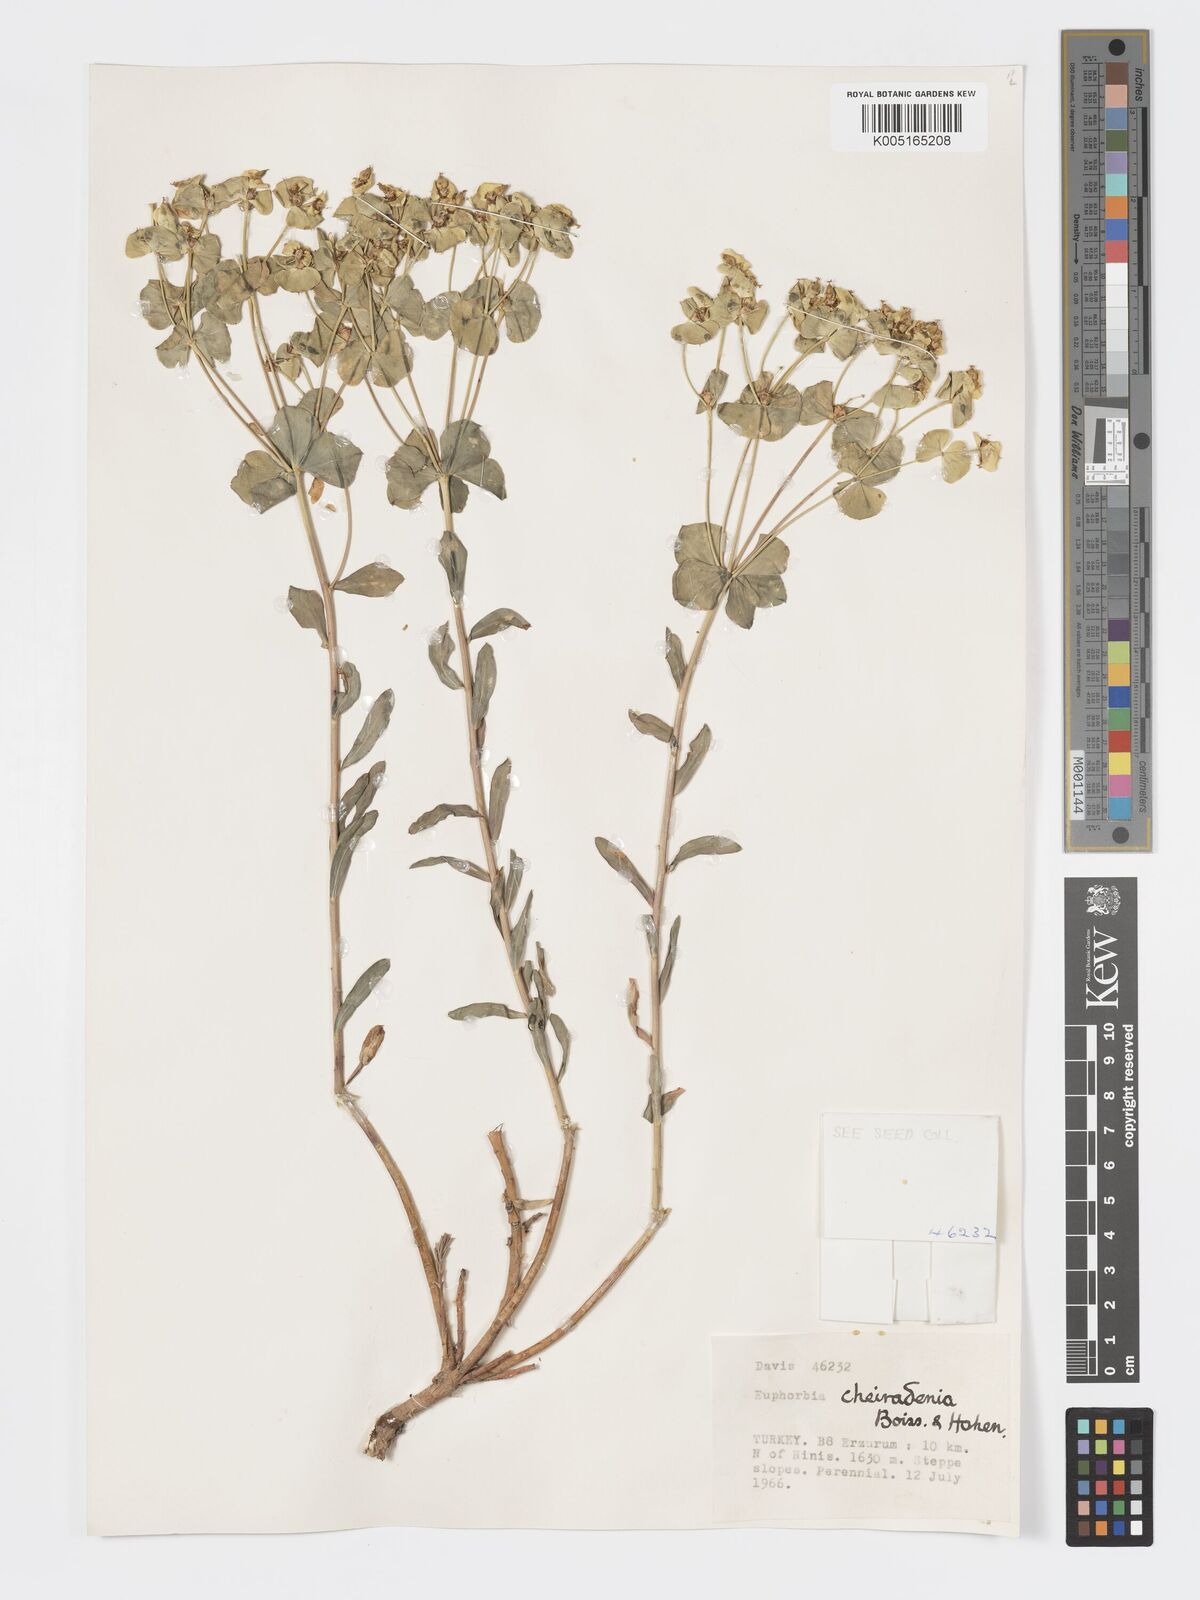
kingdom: Plantae
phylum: Tracheophyta
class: Magnoliopsida
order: Malpighiales
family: Euphorbiaceae
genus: Euphorbia
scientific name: Euphorbia cheiradenia
